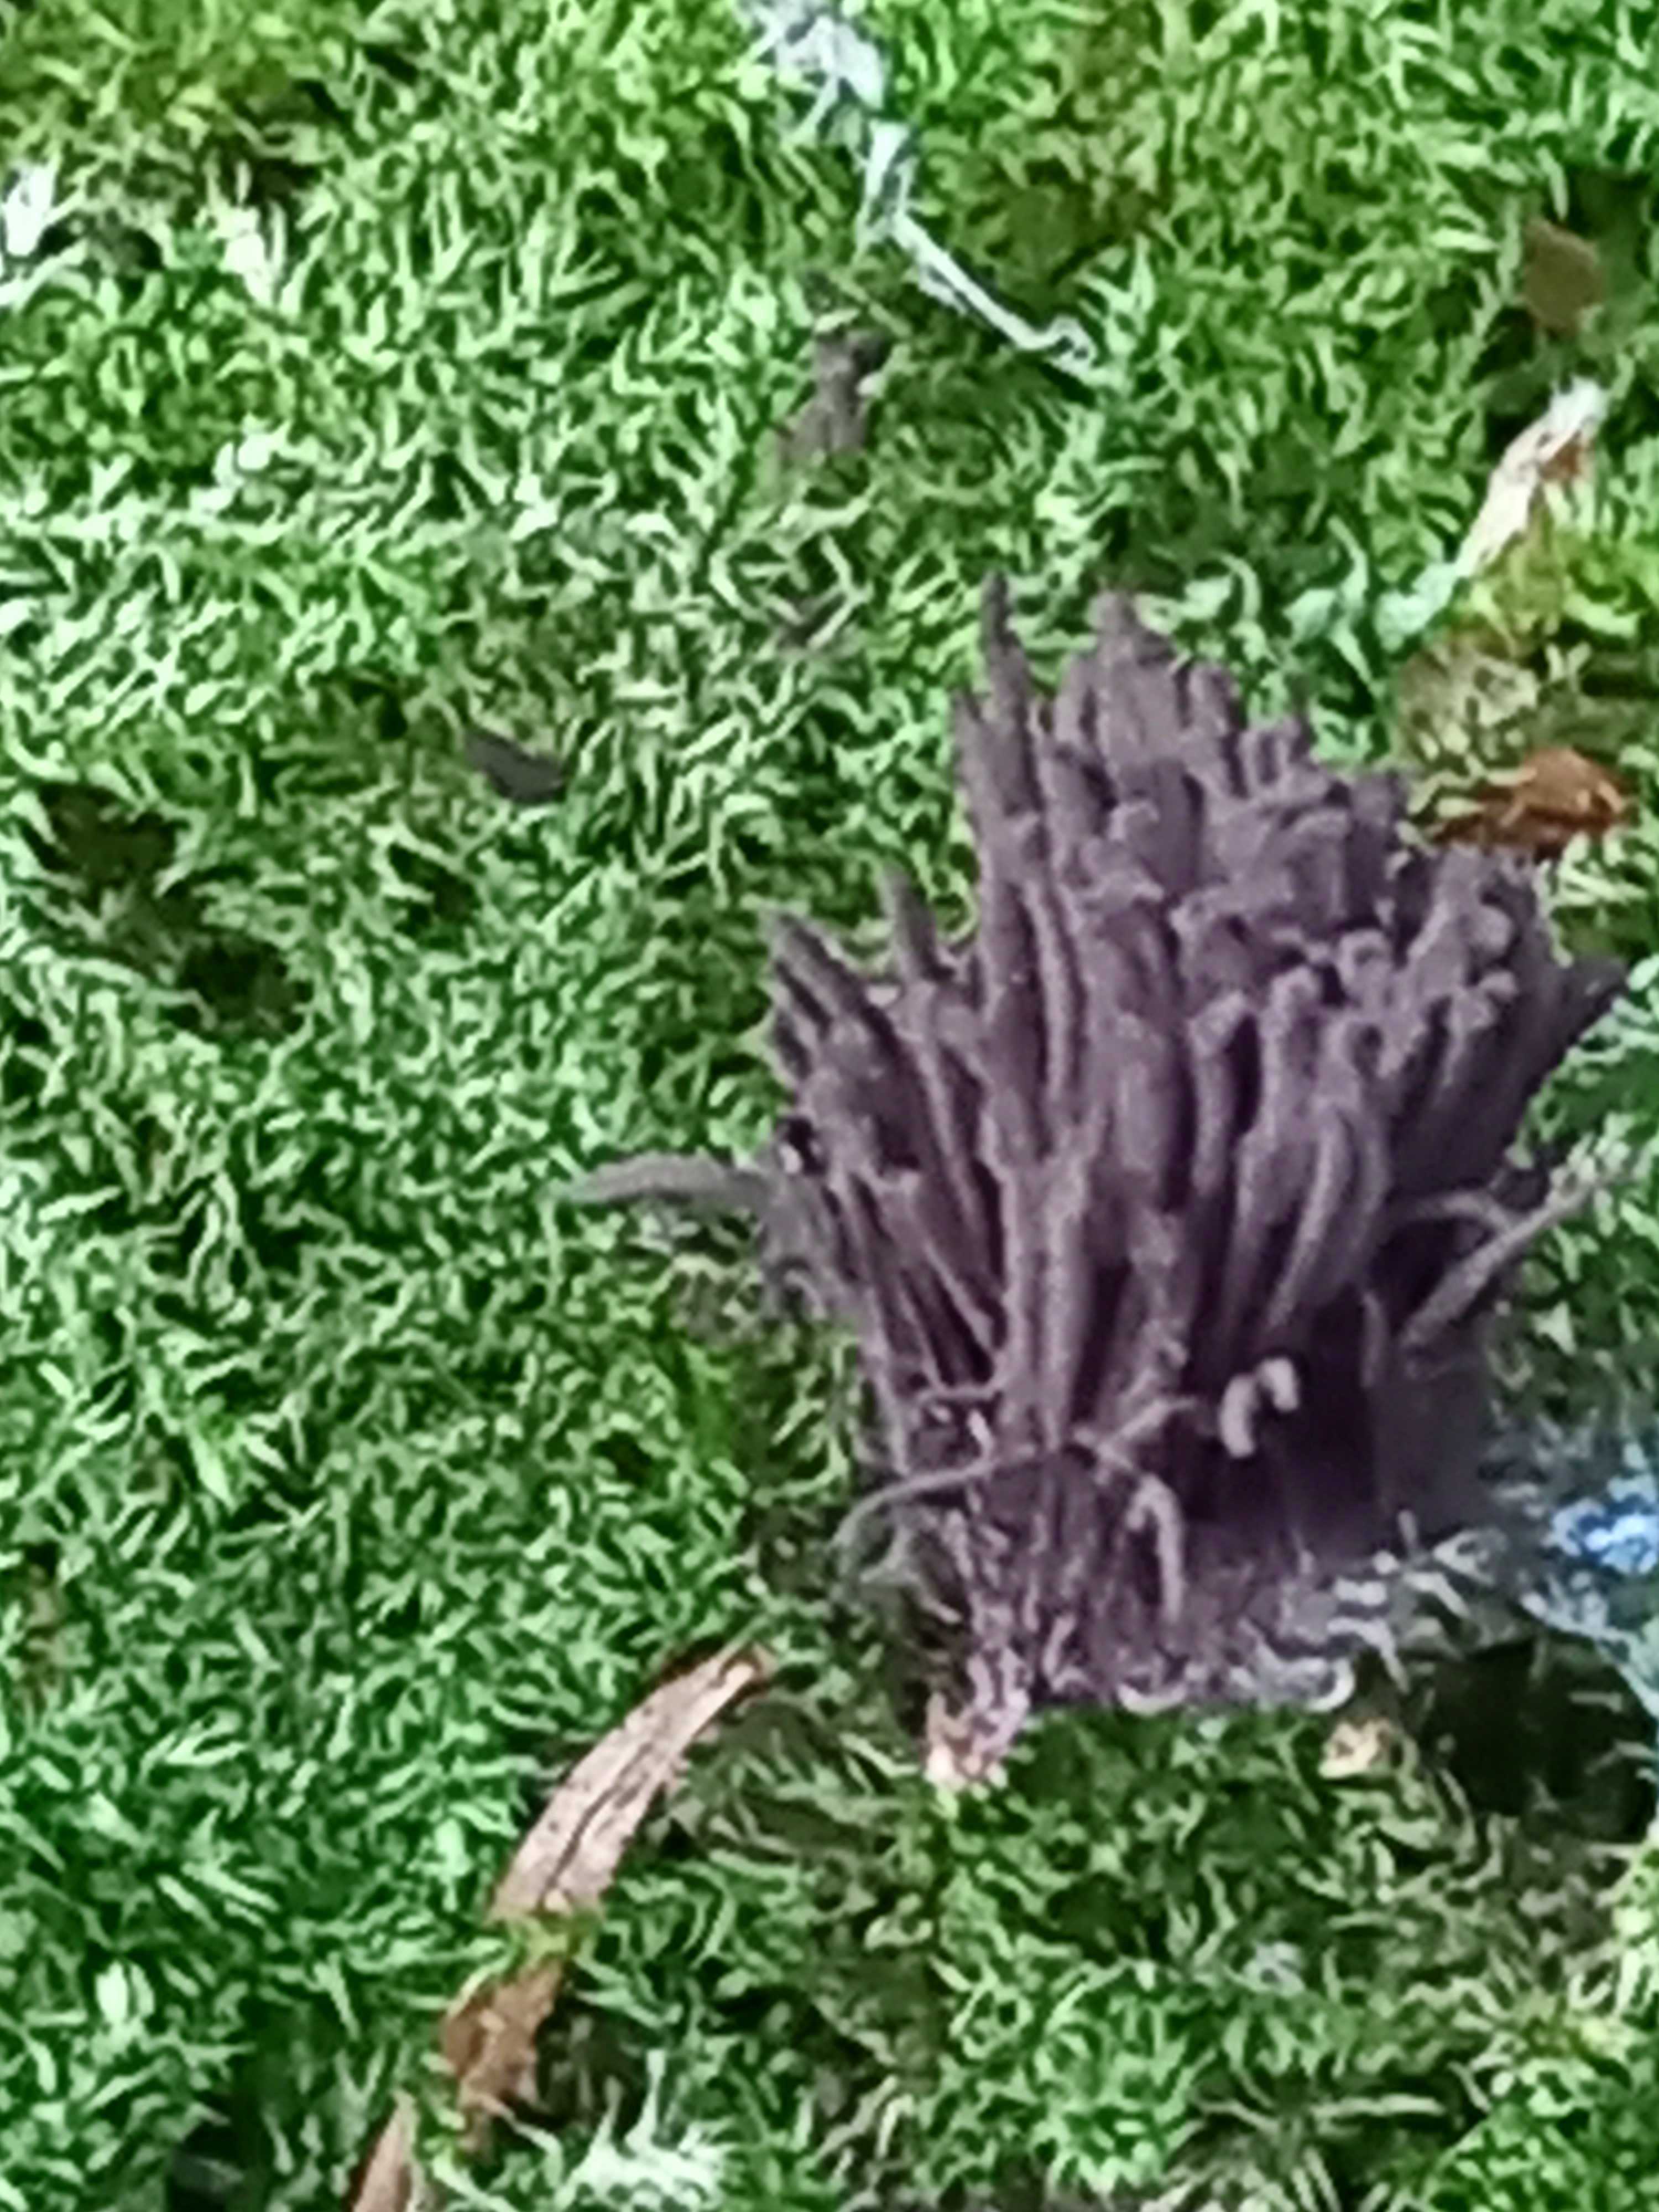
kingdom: Protozoa
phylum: Mycetozoa
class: Myxomycetes
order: Stemonitidales
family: Stemonitidaceae
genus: Stemonitis
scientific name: Stemonitis
